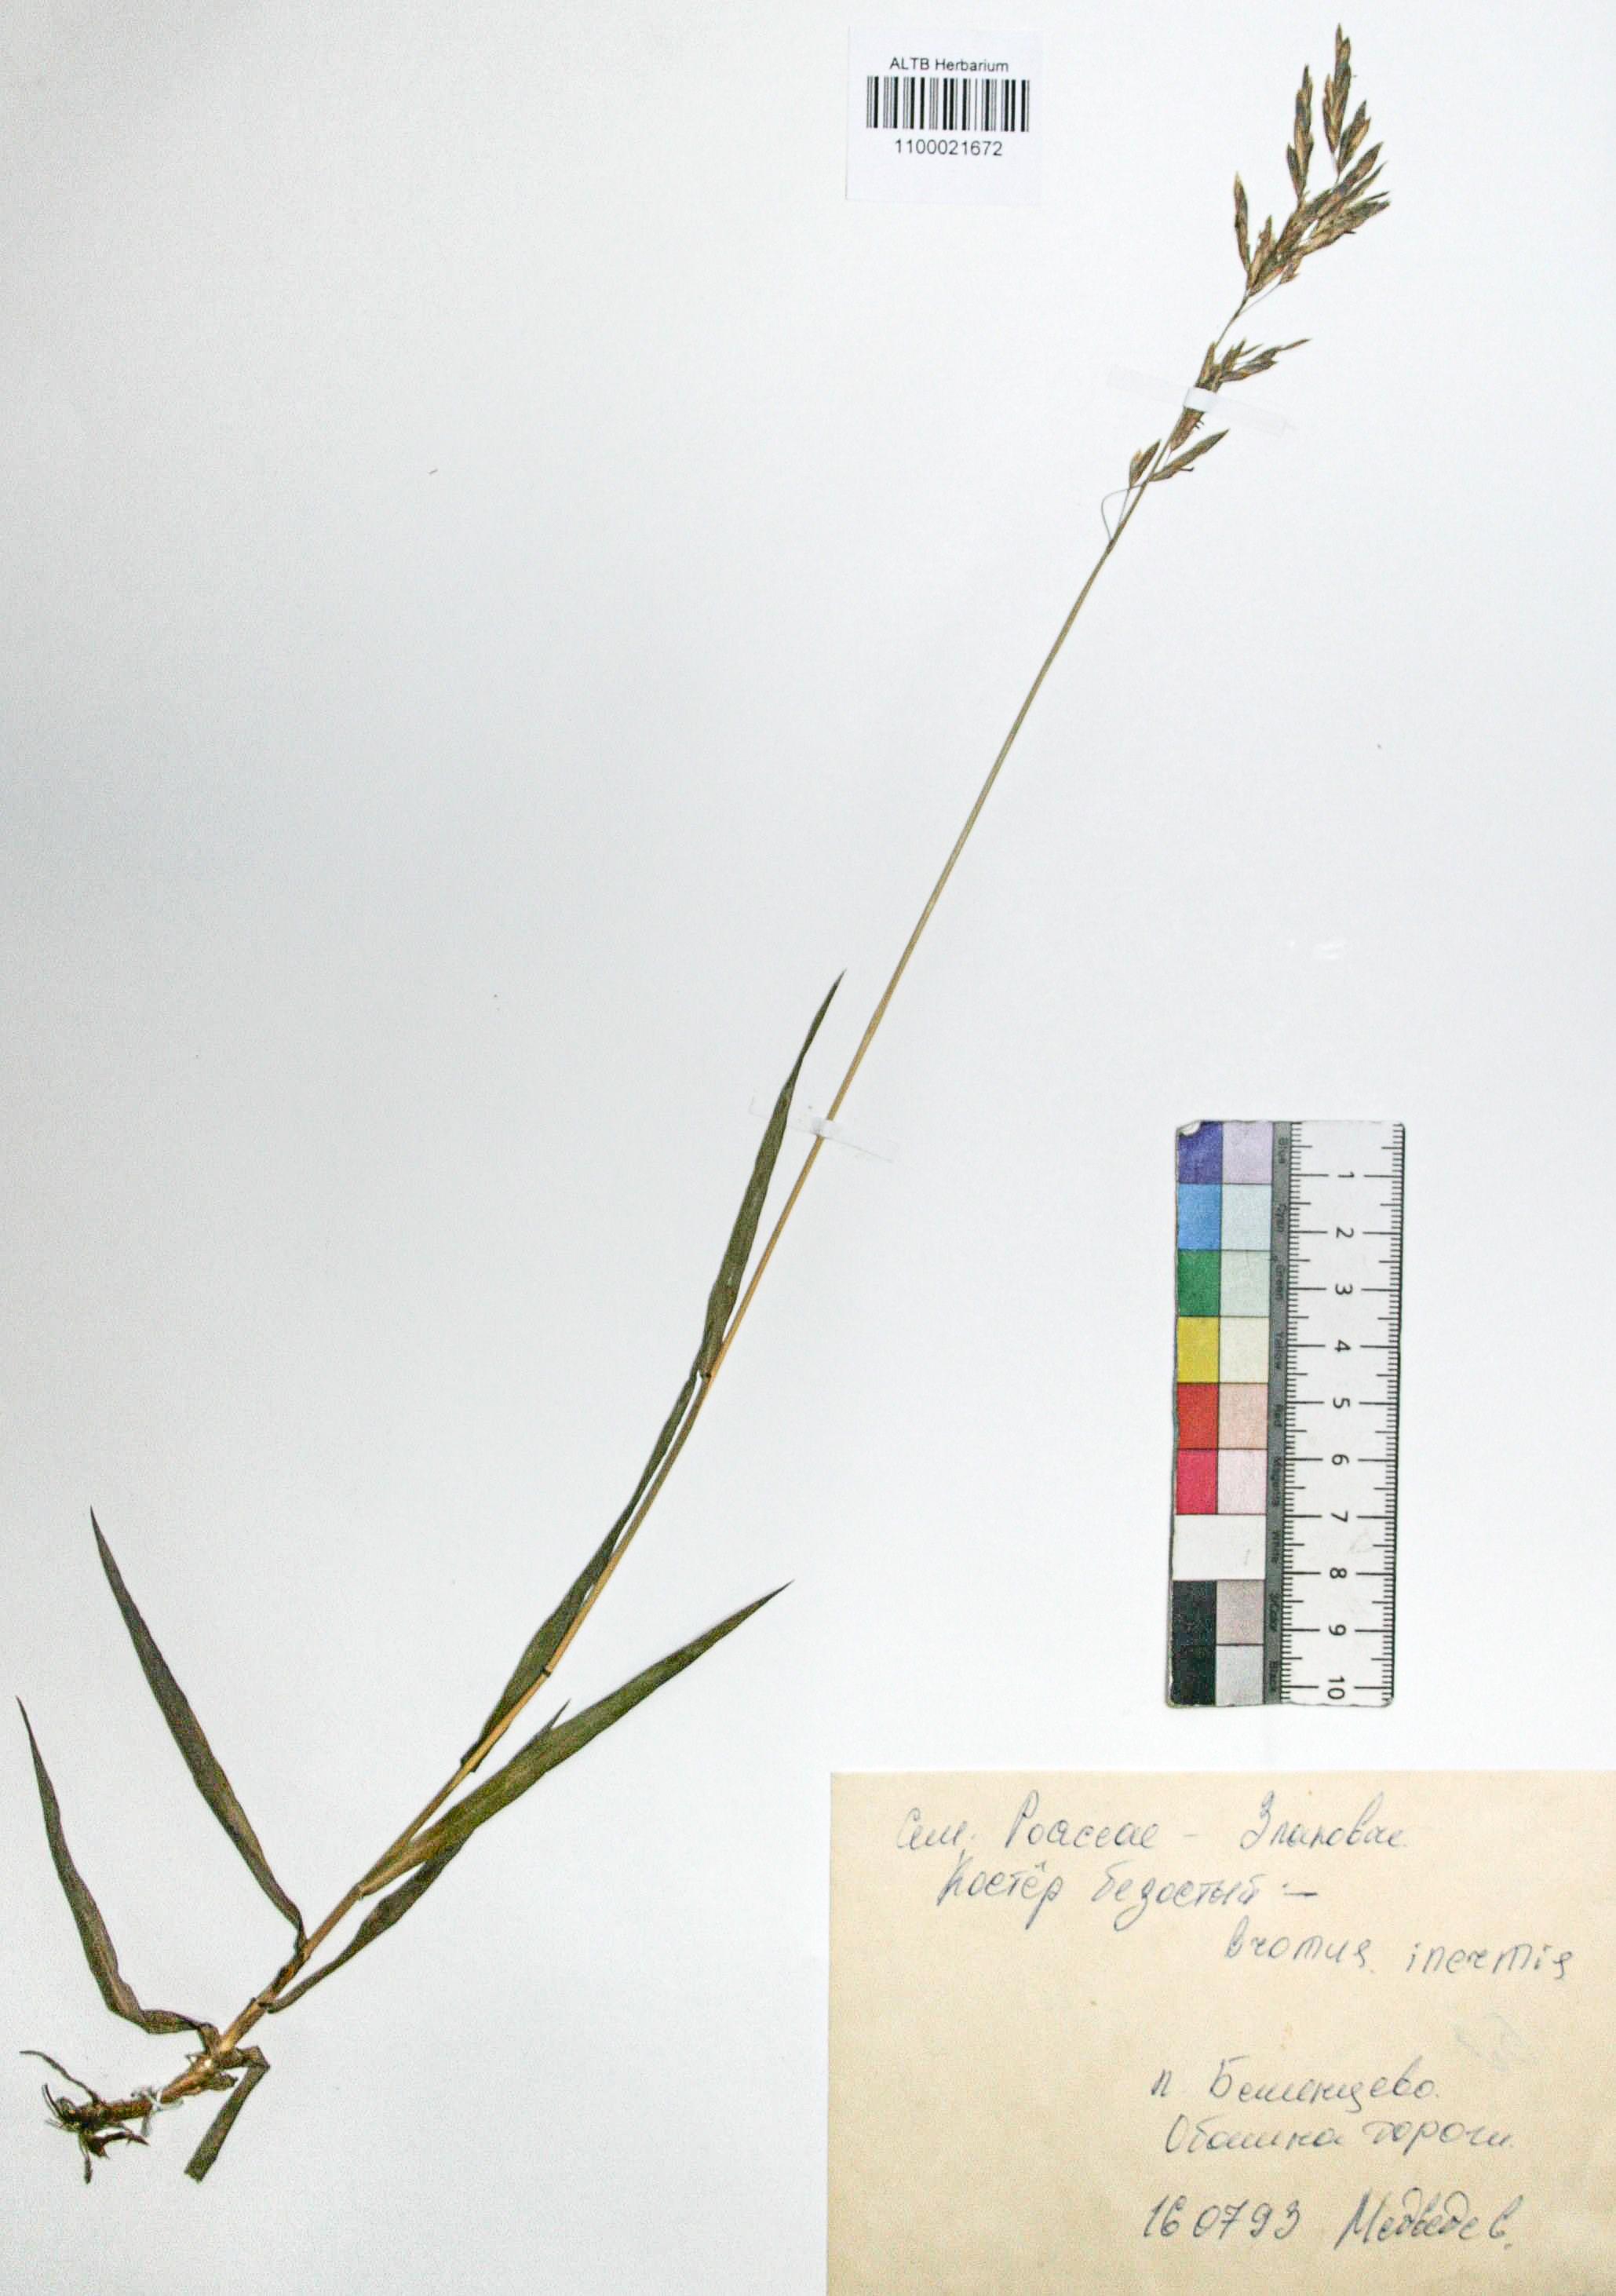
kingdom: Plantae
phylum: Tracheophyta
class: Liliopsida
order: Poales
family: Poaceae
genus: Bromus
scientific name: Bromus inermis
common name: Smooth brome
